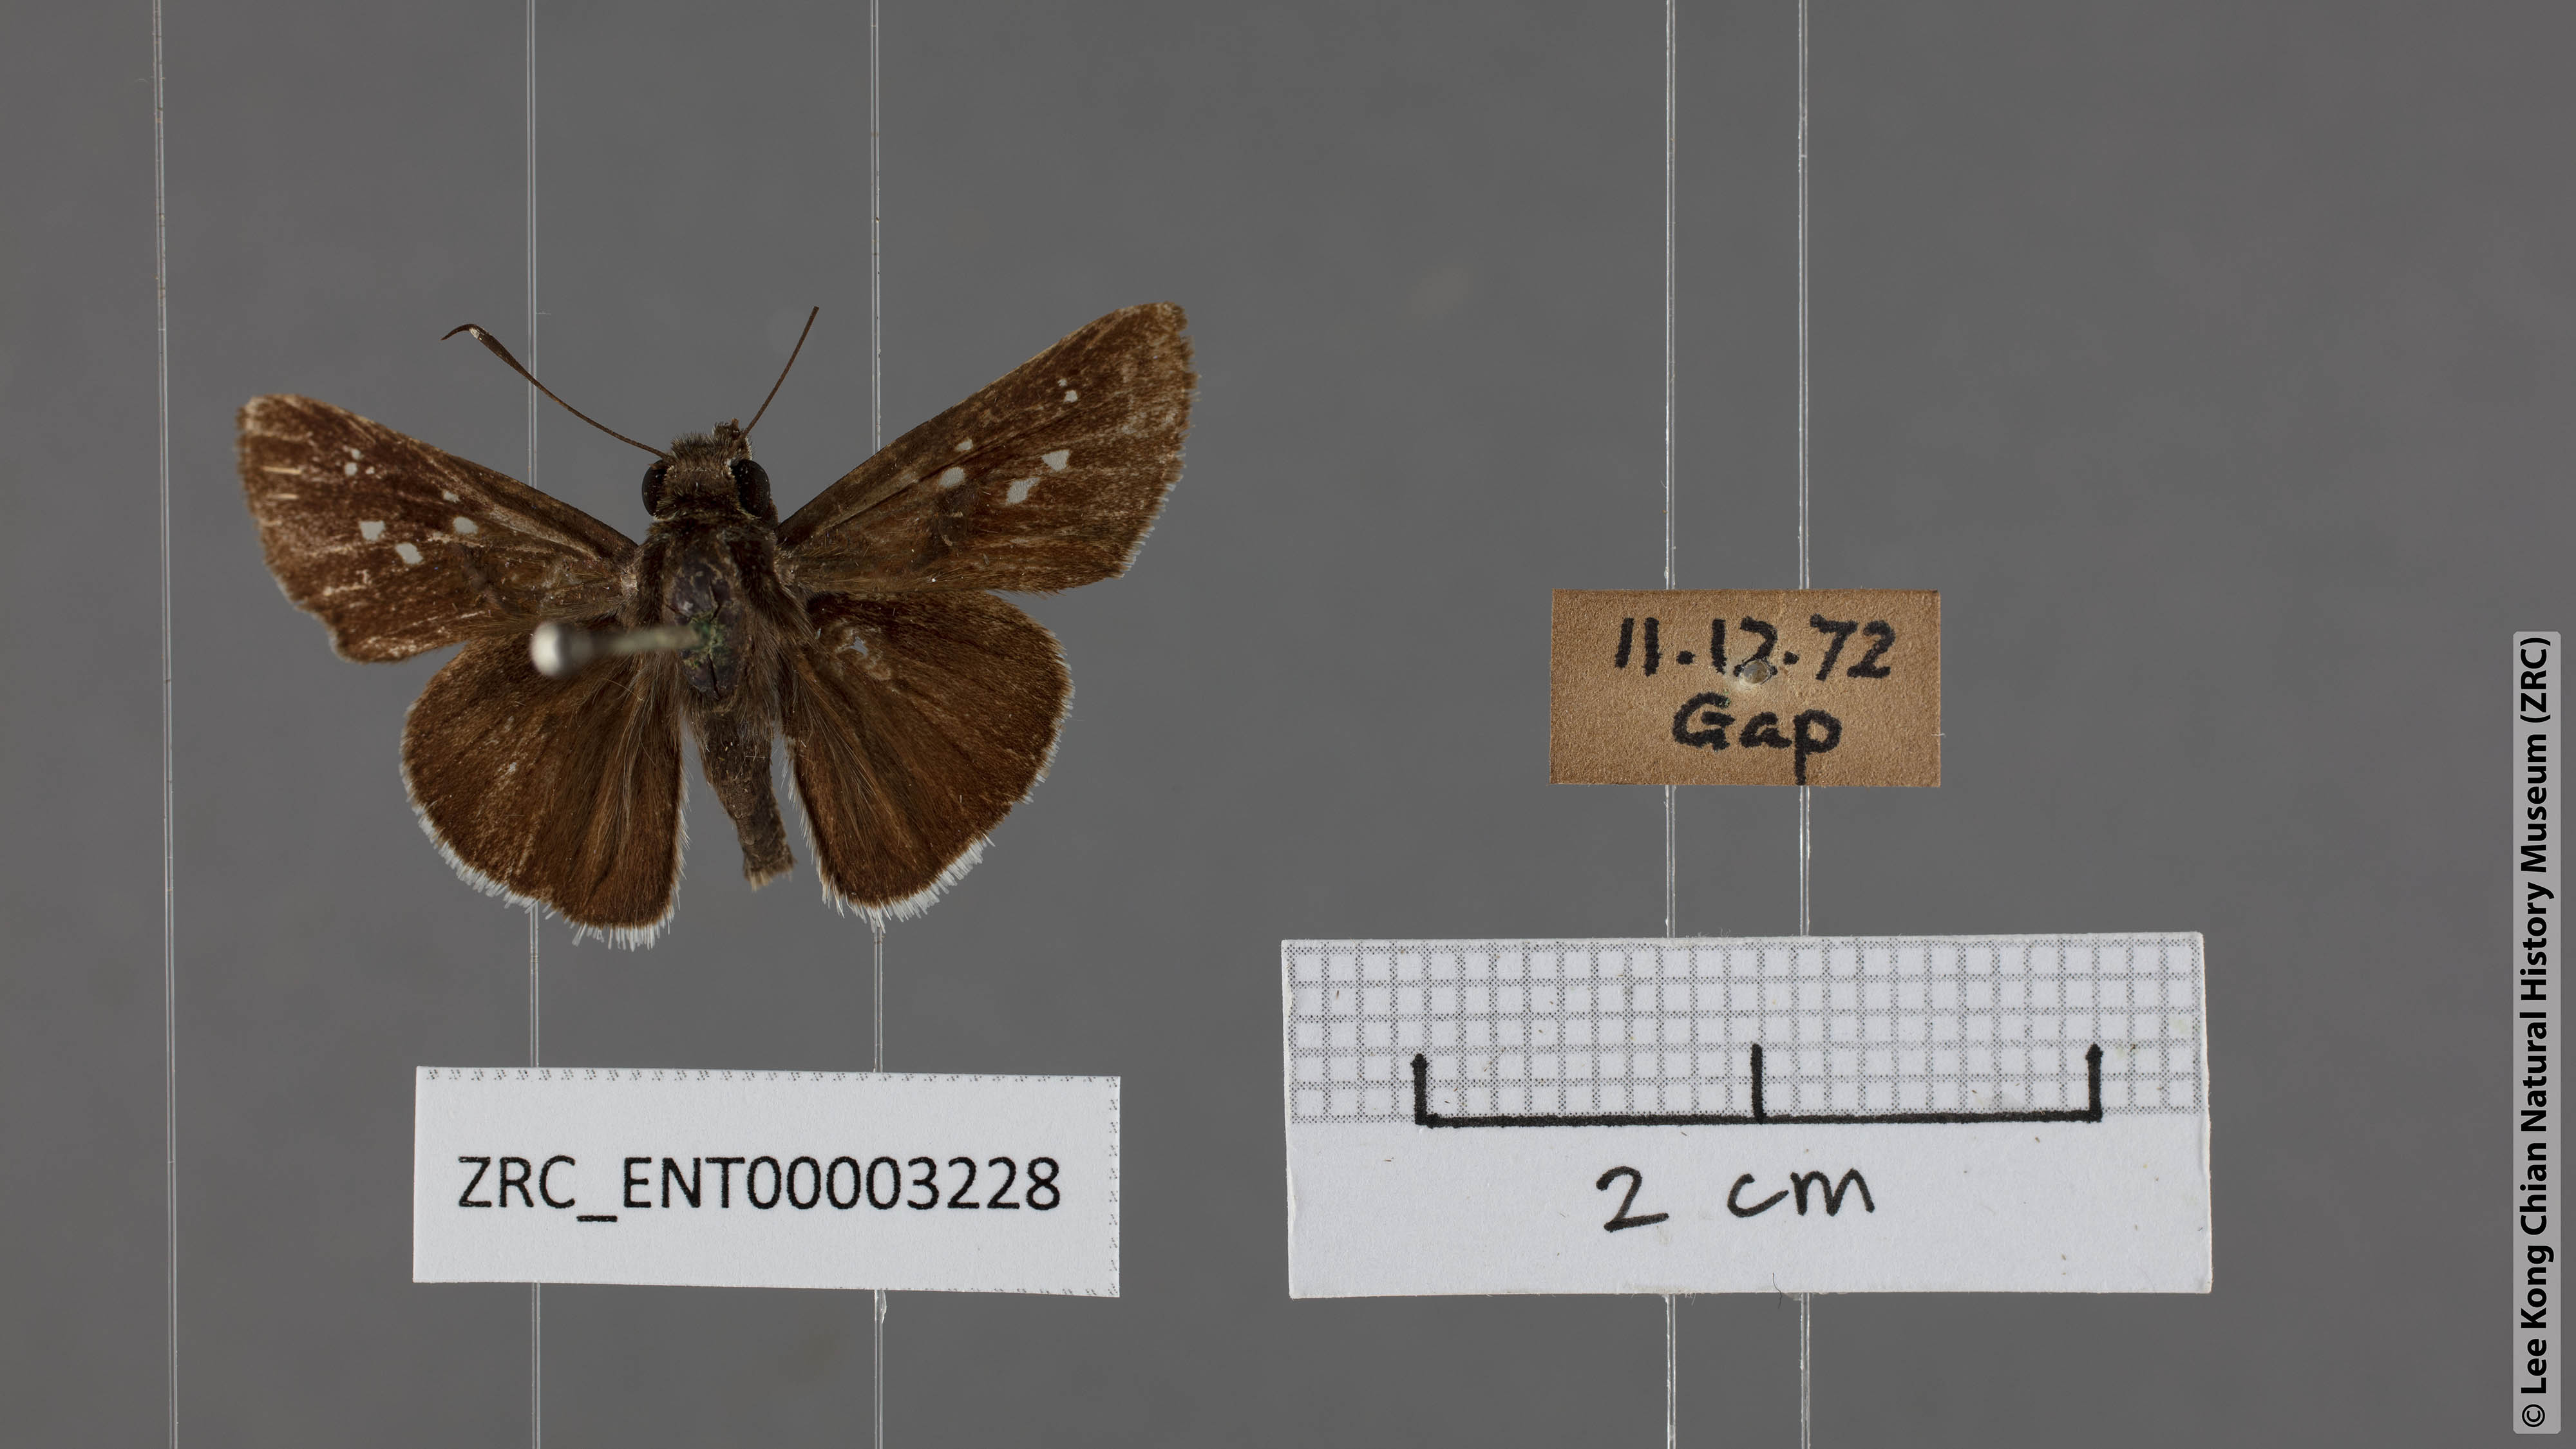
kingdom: Animalia
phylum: Arthropoda
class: Insecta
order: Lepidoptera
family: Hesperiidae
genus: Halpe
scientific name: Halpe insignis
